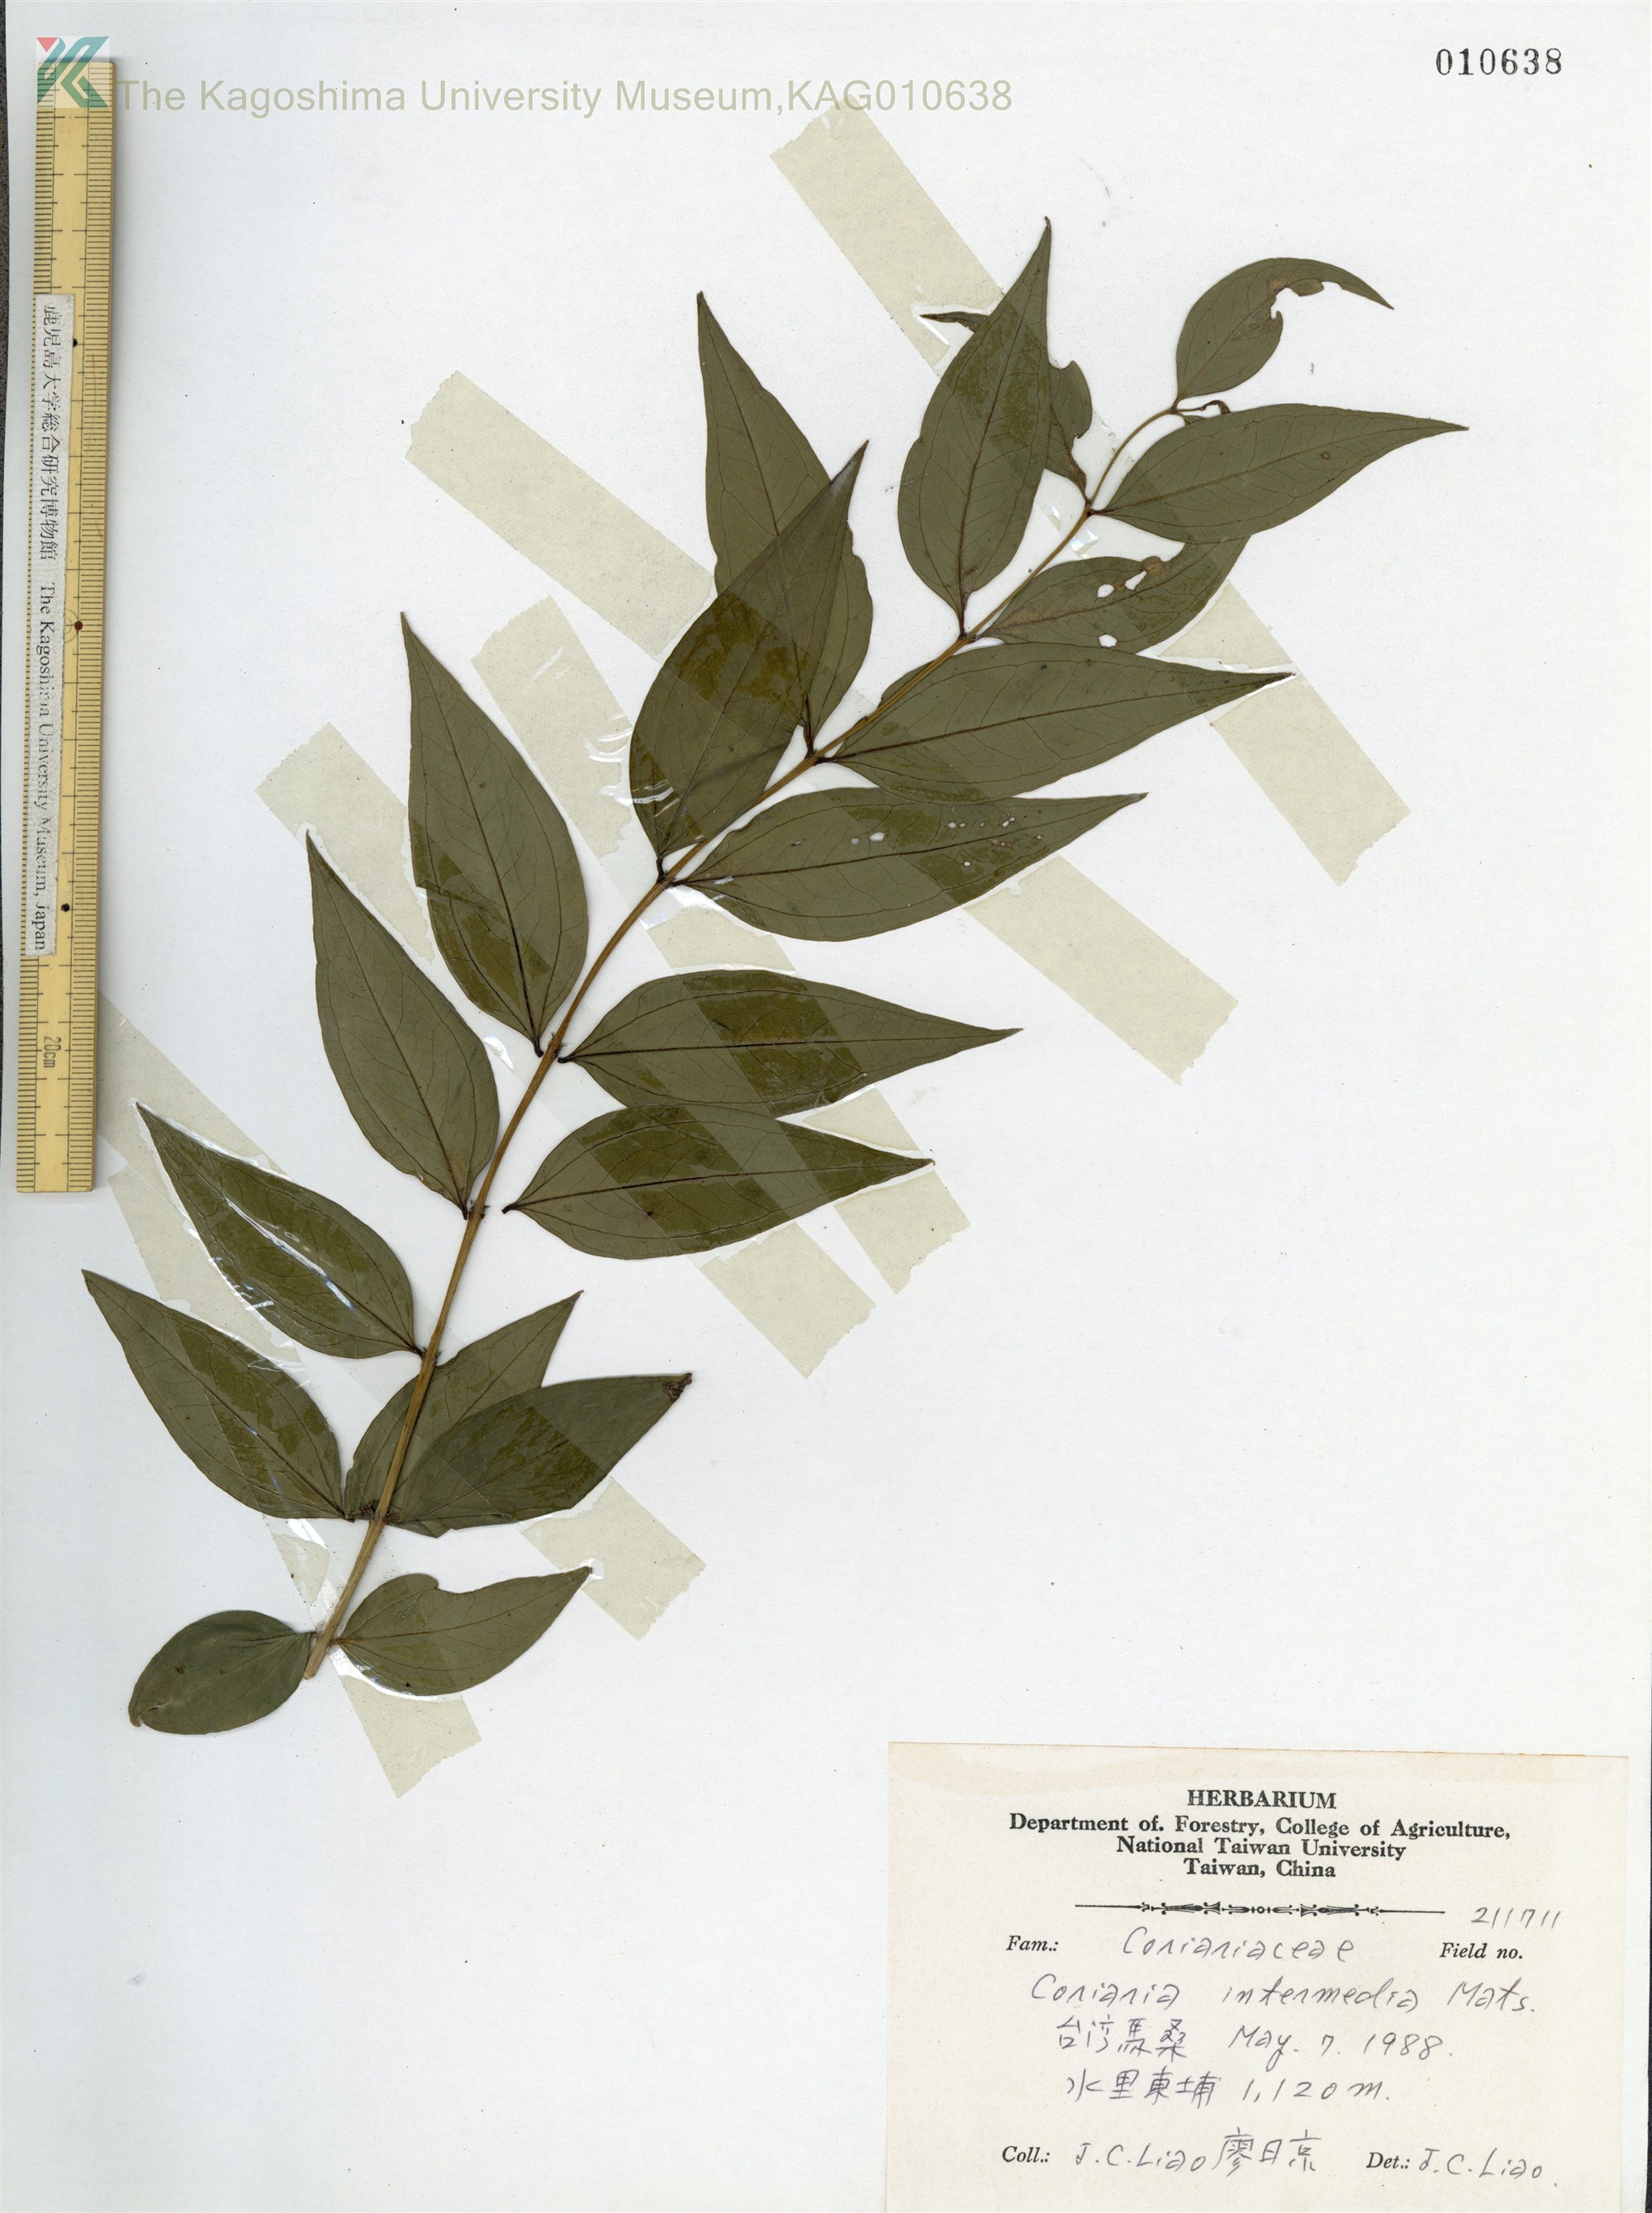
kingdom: Plantae
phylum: Tracheophyta
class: Magnoliopsida
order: Cucurbitales
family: Coriariaceae
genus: Coriaria
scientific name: Coriaria japonica
